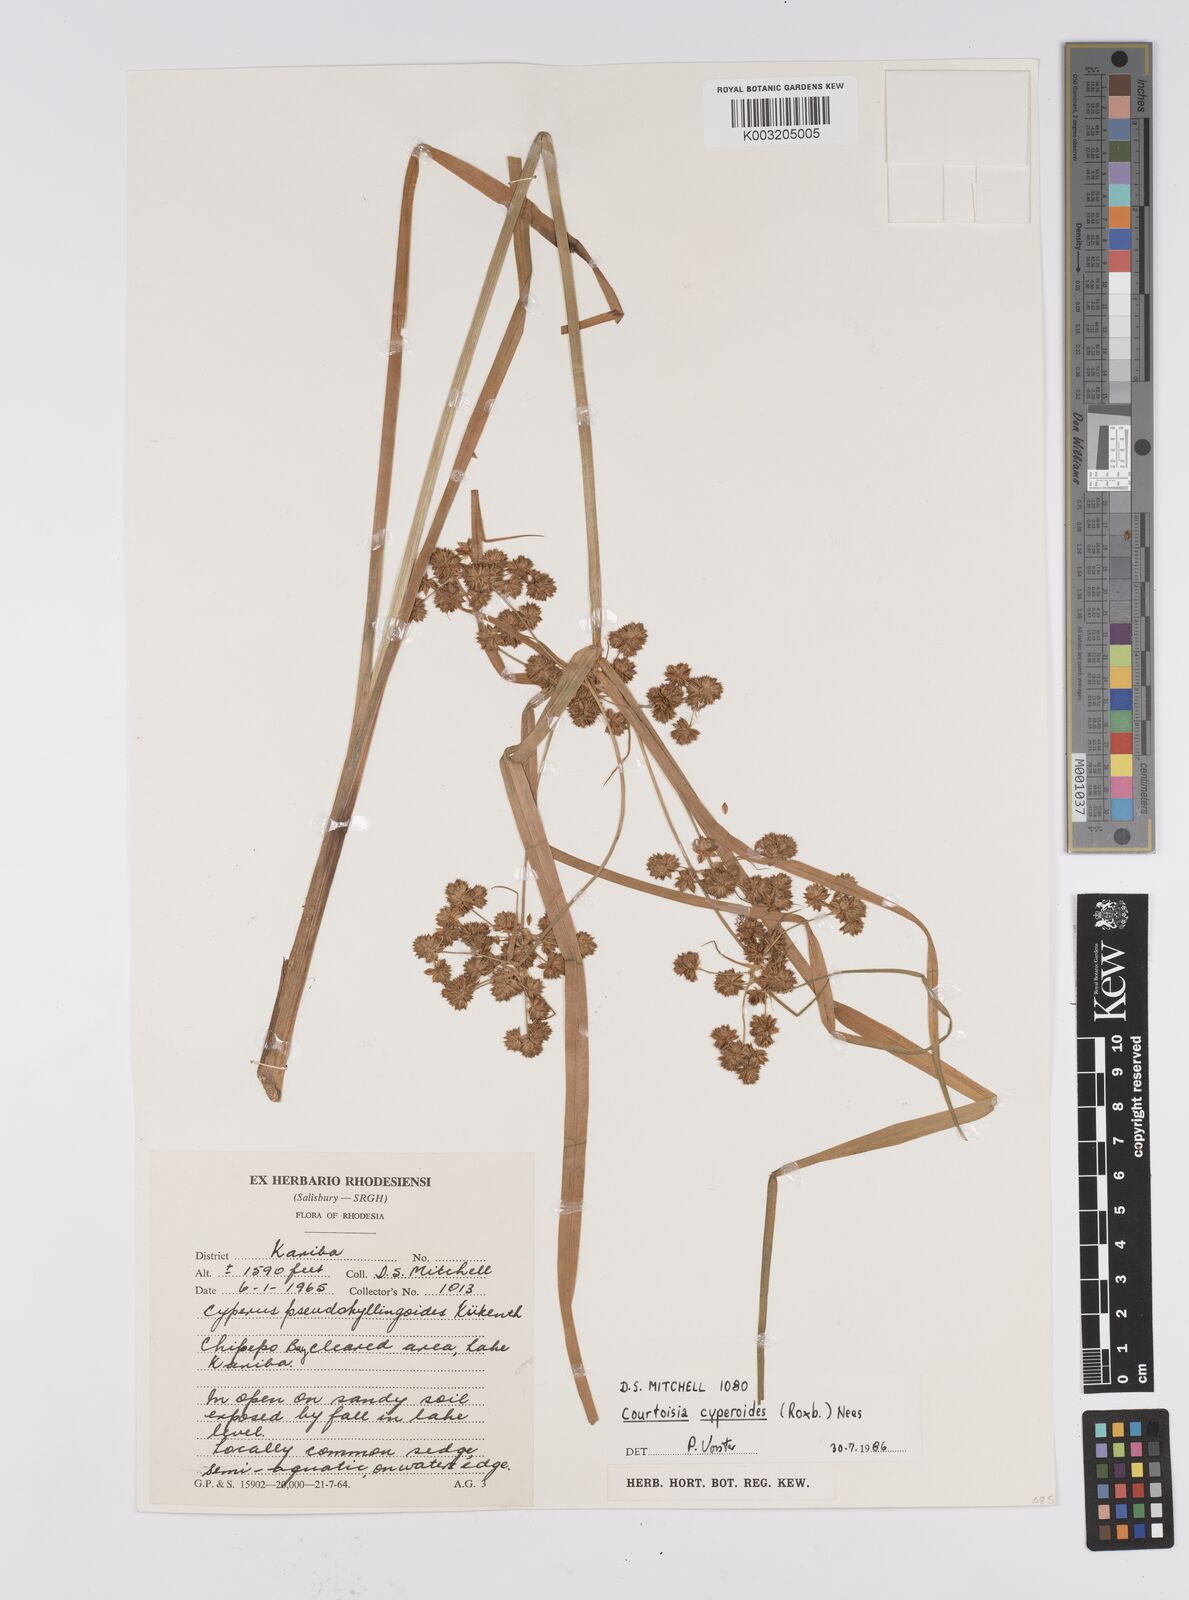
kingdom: Plantae
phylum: Tracheophyta
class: Liliopsida
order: Poales
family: Cyperaceae
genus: Cyperus
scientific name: Cyperus cyperoides
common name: Pacific island flat sedge
